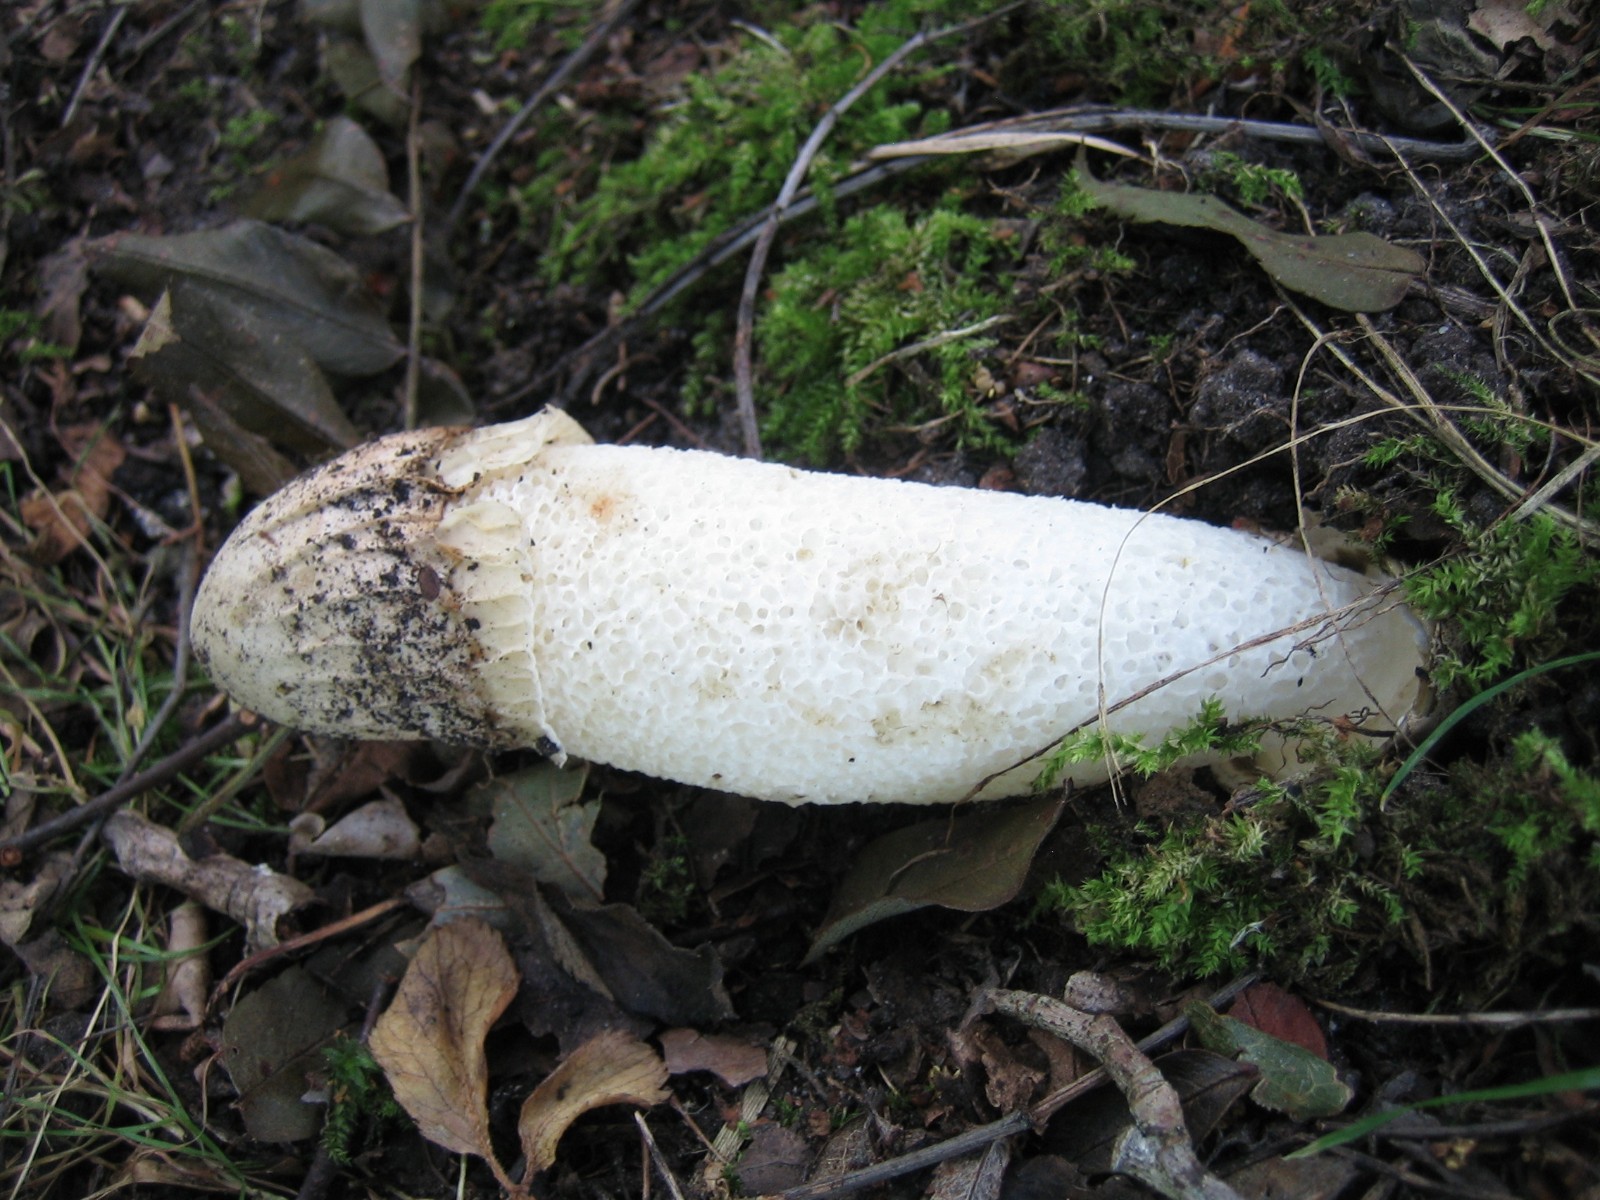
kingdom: Fungi
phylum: Basidiomycota
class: Agaricomycetes
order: Phallales
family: Phallaceae
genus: Phallus
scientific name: Phallus impudicus
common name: almindelig stinksvamp
